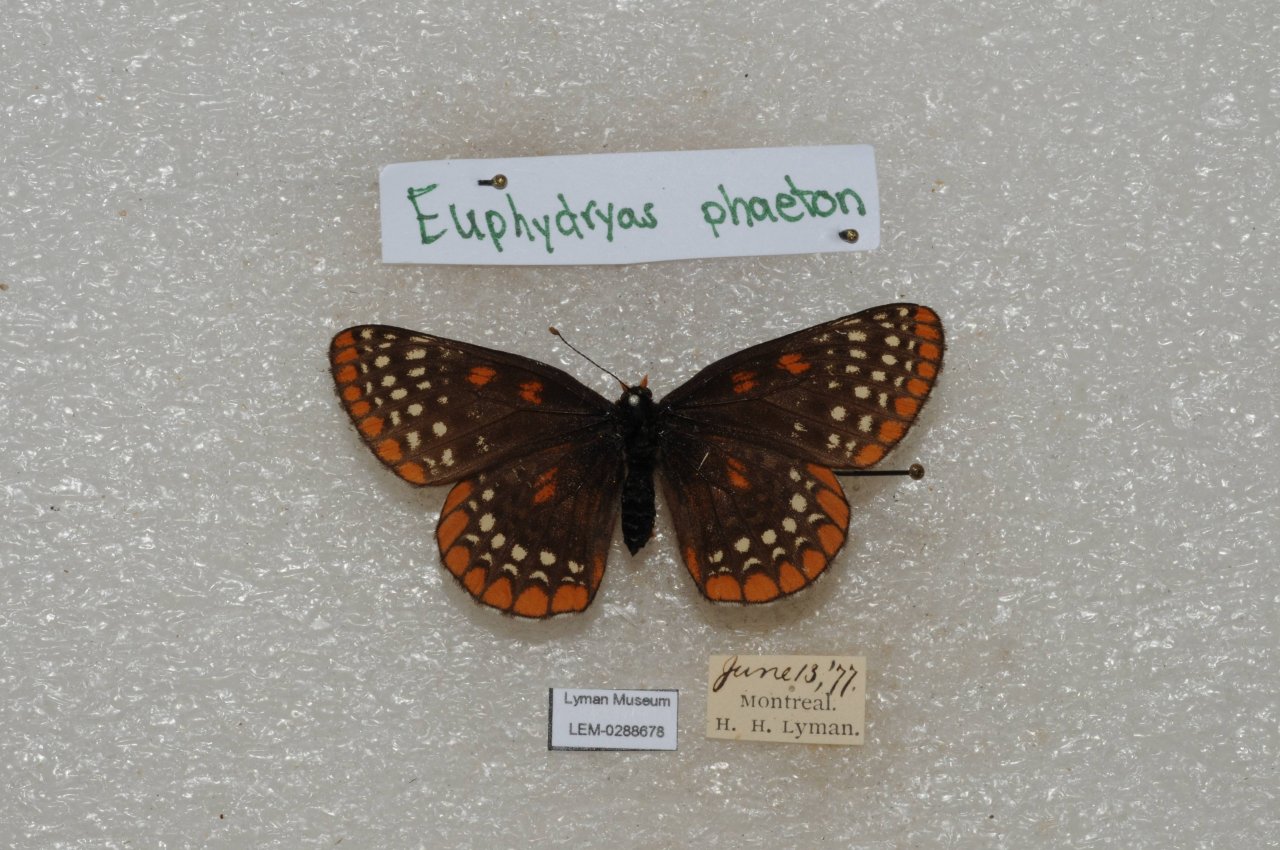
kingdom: Animalia
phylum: Arthropoda
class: Insecta
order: Lepidoptera
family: Nymphalidae
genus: Euphydryas
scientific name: Euphydryas phaeton
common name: Baltimore Checkerspot
